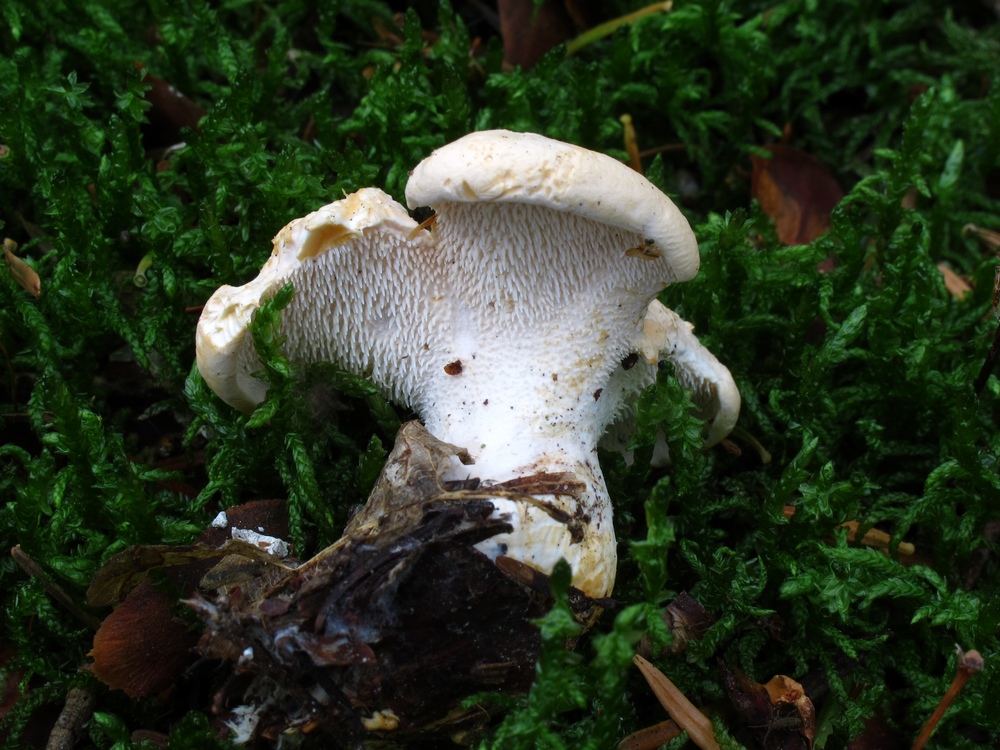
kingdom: Fungi
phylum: Basidiomycota
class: Agaricomycetes
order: Cantharellales
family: Hydnaceae
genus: Hydnum
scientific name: Hydnum repandum
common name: almindelig pigsvamp
